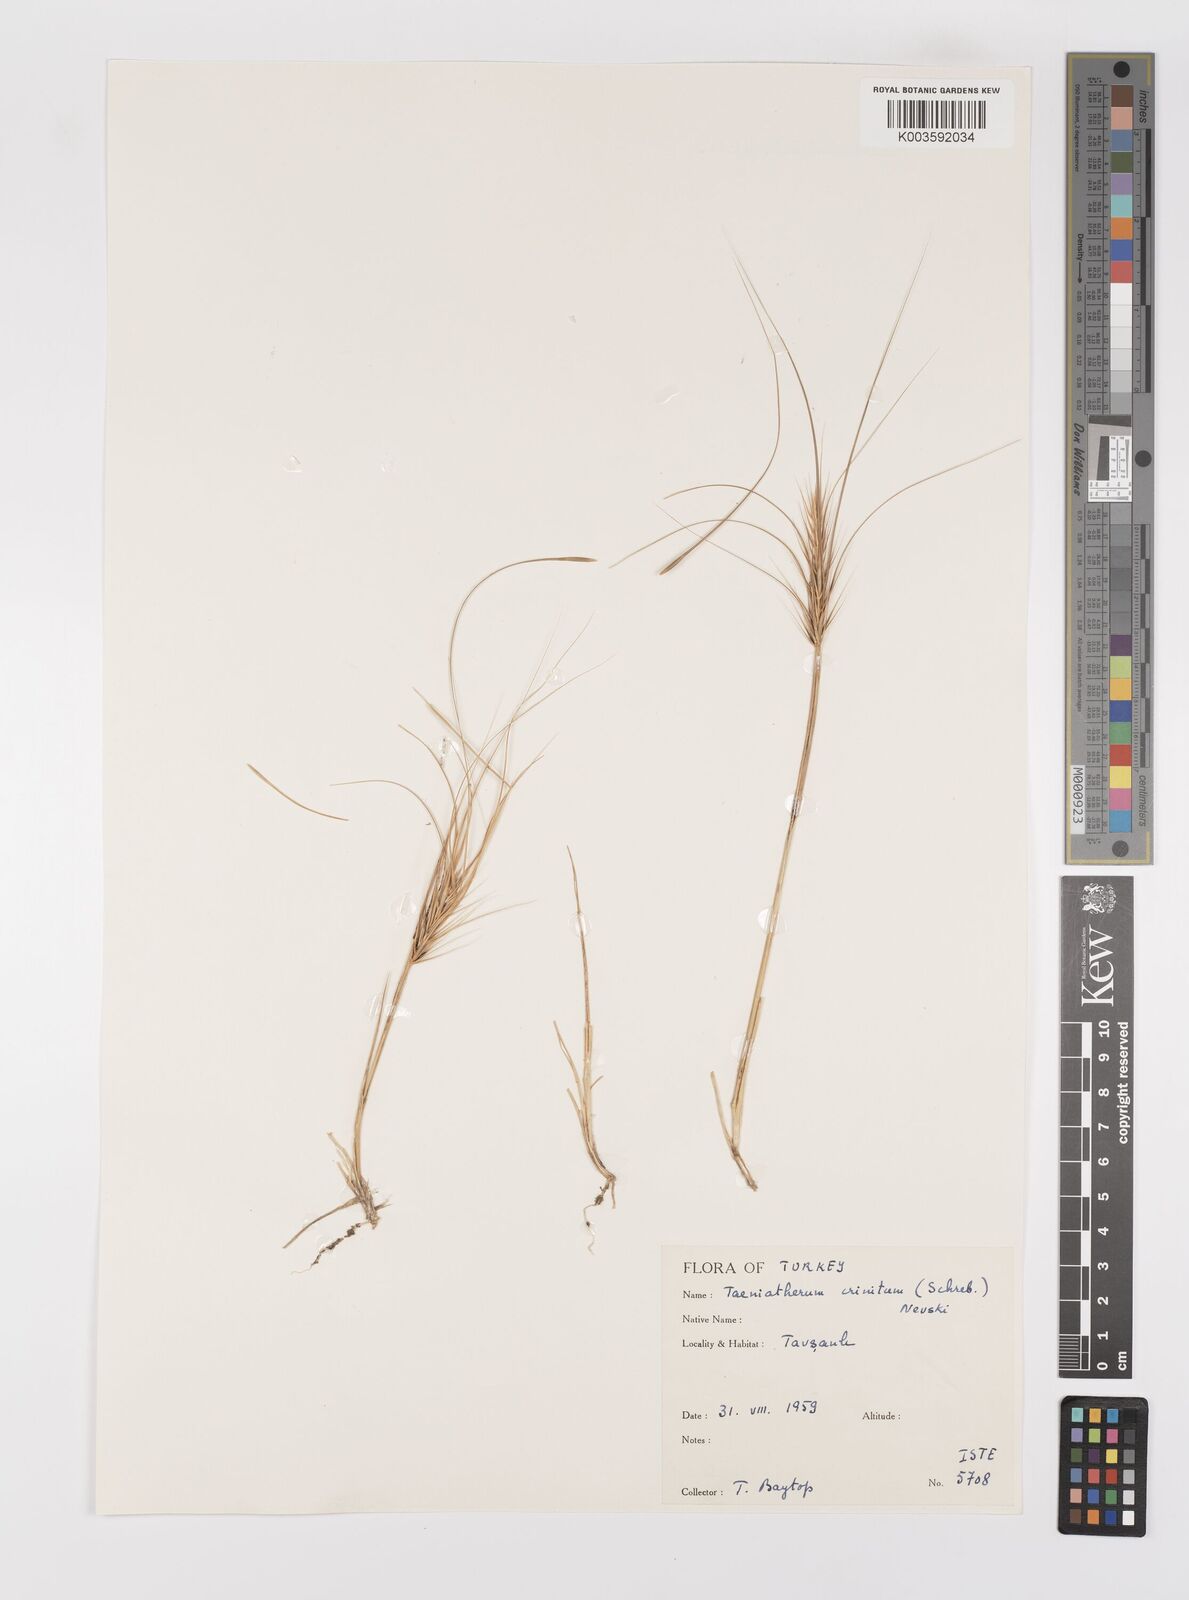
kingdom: Plantae
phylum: Tracheophyta
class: Liliopsida
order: Poales
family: Poaceae
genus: Taeniatherum
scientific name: Taeniatherum caput-medusae
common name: Medusahead
